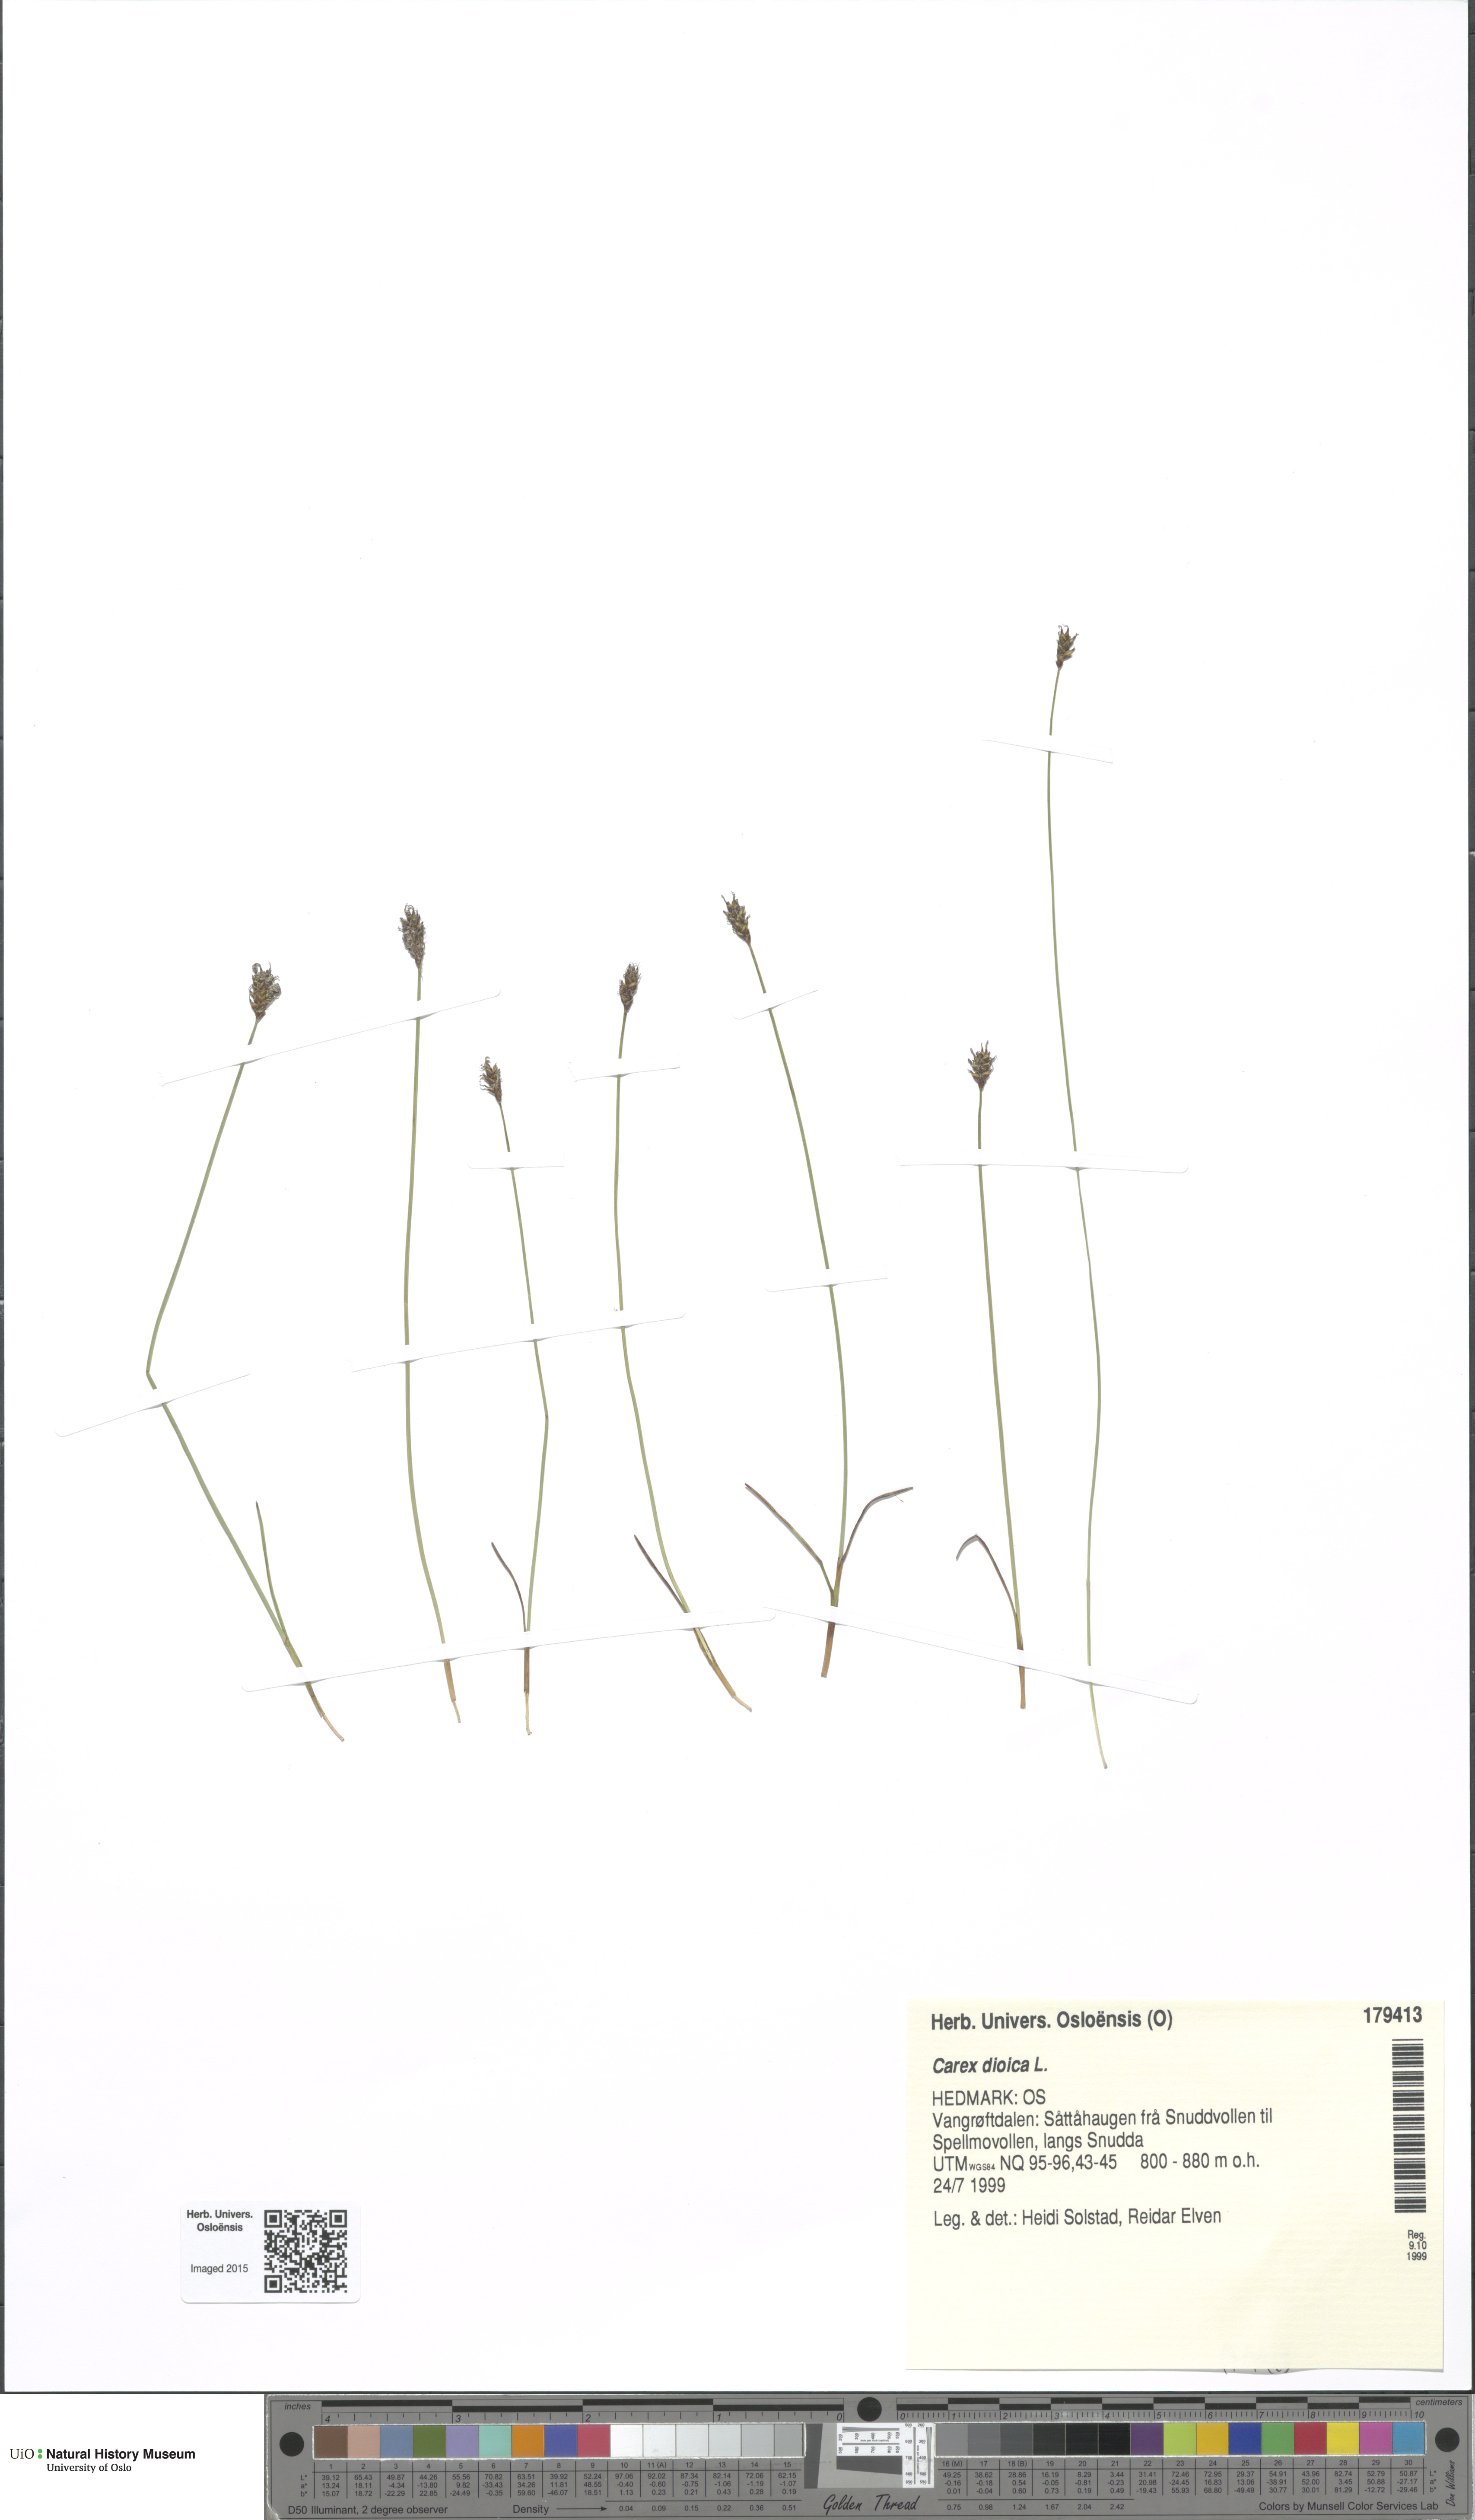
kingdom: Plantae
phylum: Tracheophyta
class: Liliopsida
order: Poales
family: Cyperaceae
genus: Carex
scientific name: Carex dioica
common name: Dioecious sedge
